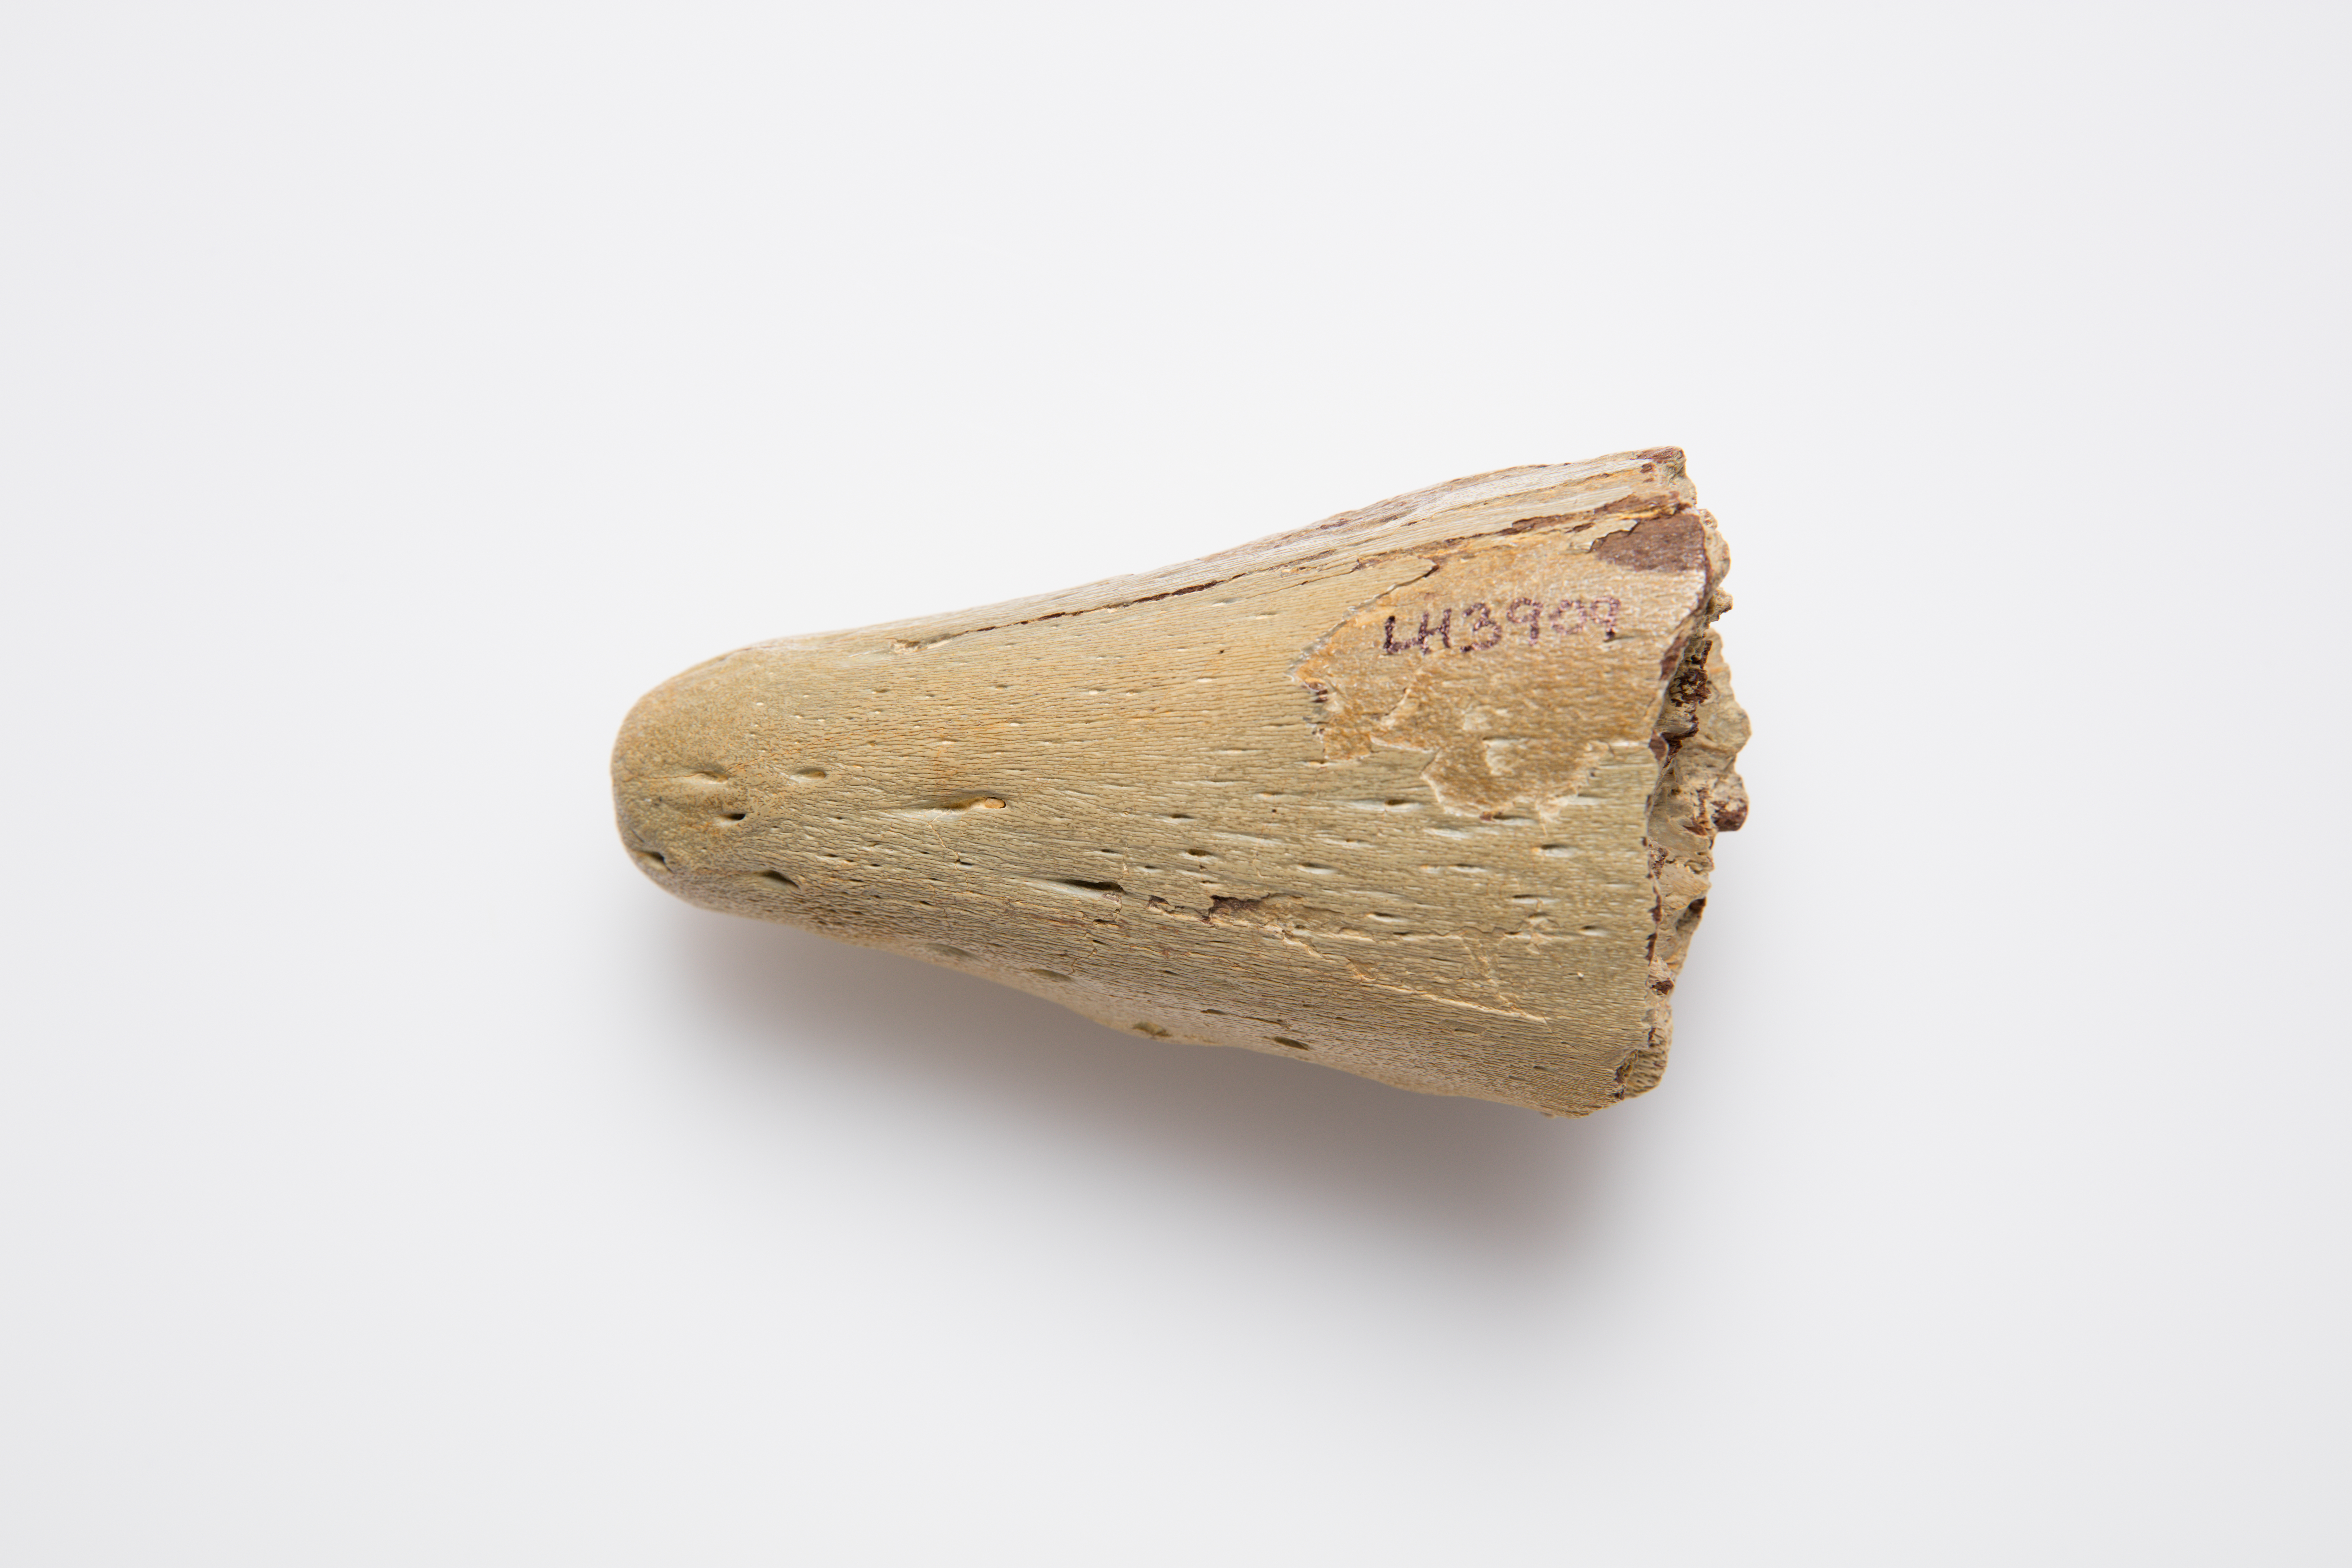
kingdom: Animalia
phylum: Chordata
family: Mosasauridae
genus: Mosasaurus
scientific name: Mosasaurus
